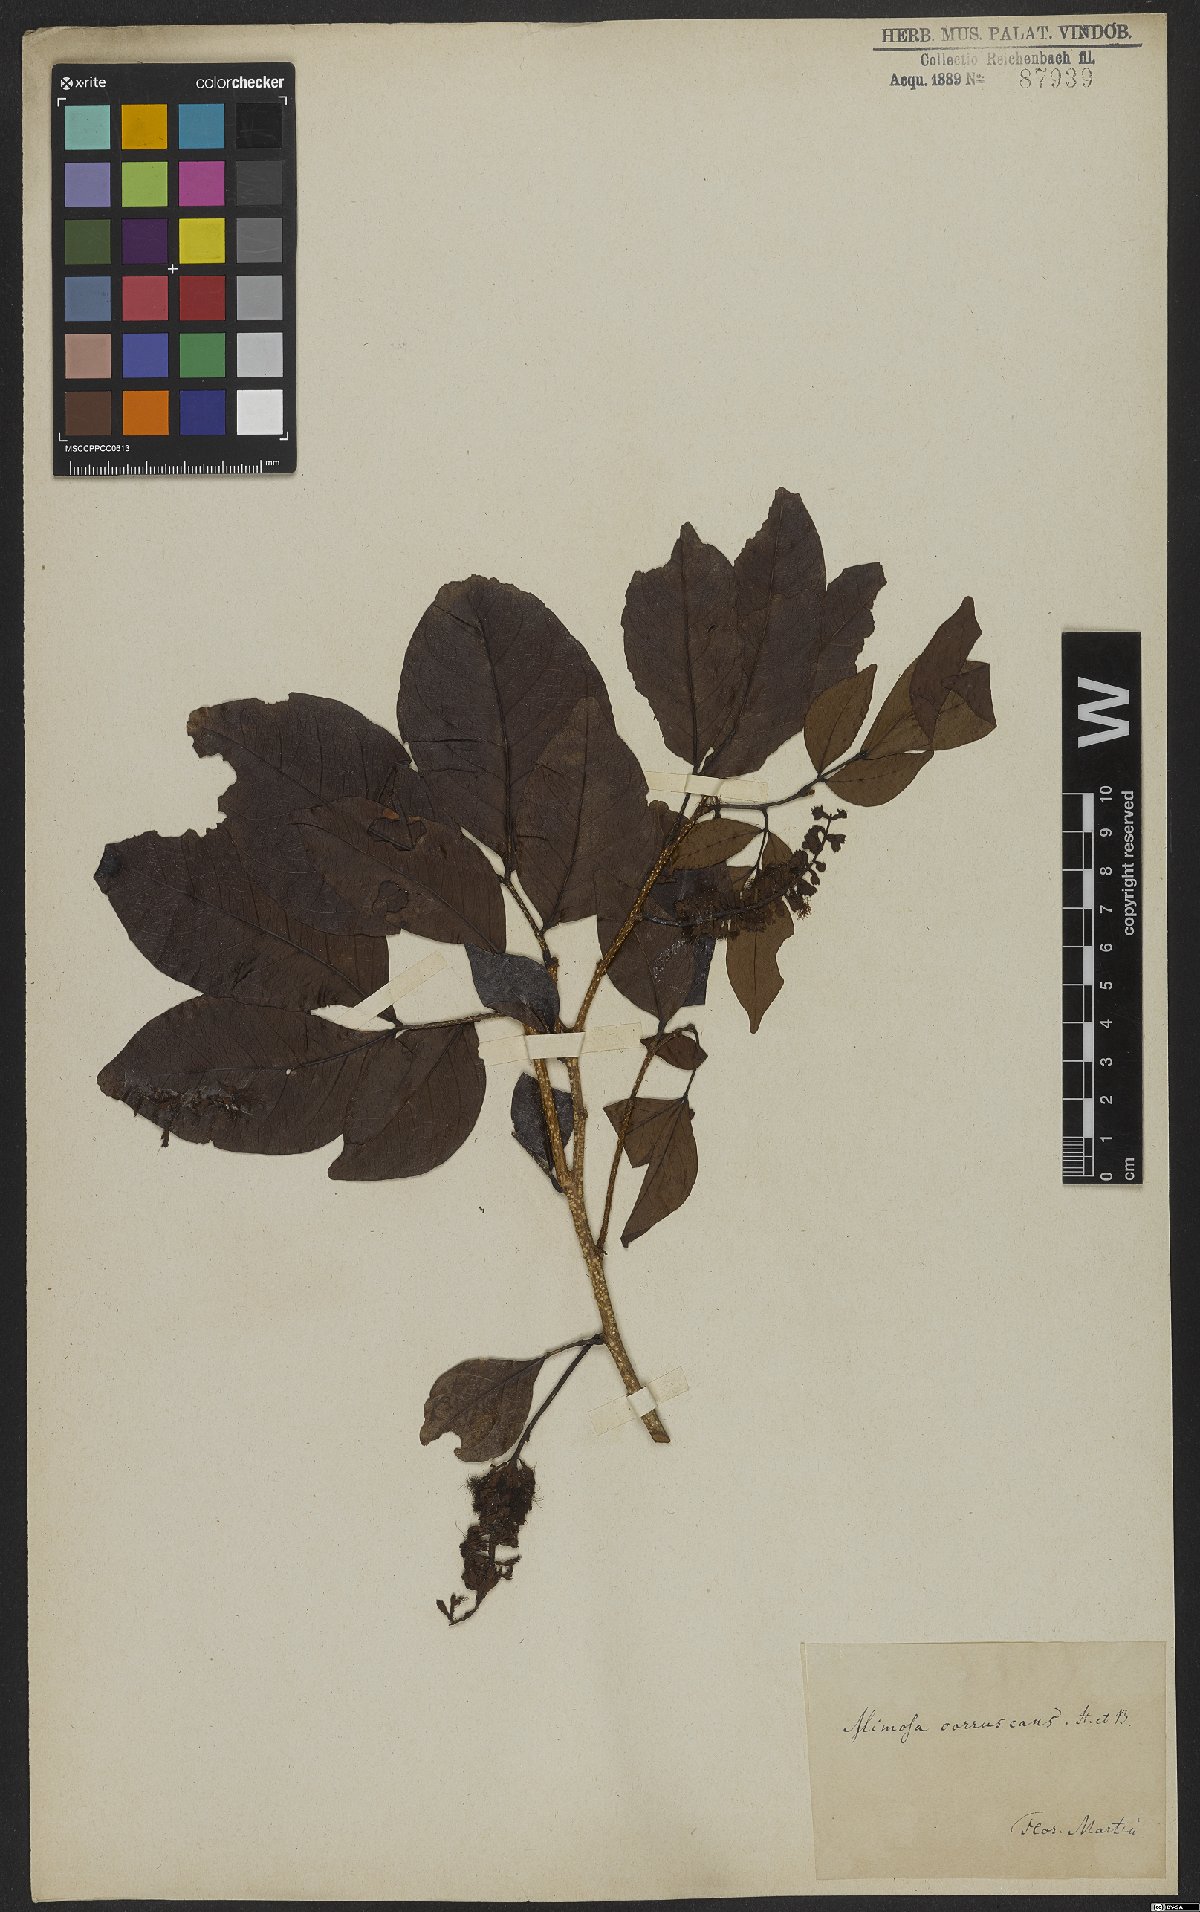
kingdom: Plantae
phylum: Tracheophyta
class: Magnoliopsida
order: Fabales
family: Fabaceae
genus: Inga
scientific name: Inga coruscans
